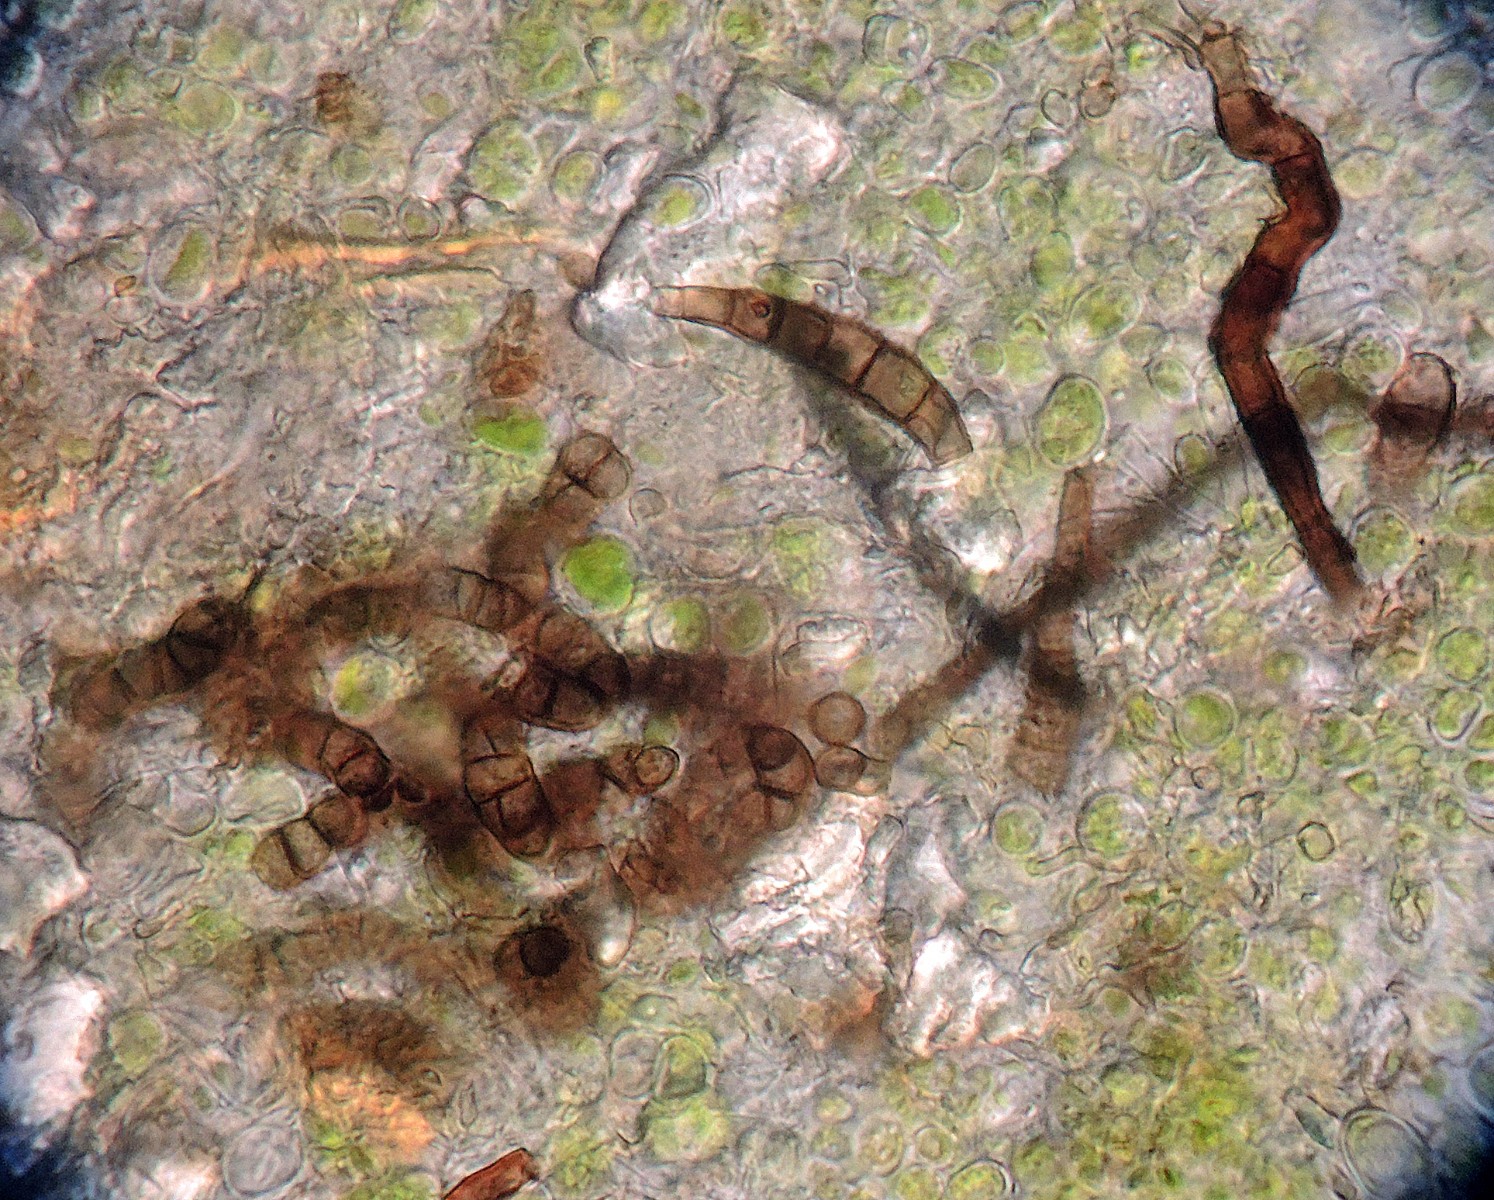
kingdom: Fungi
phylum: Ascomycota
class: Leotiomycetes
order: Helotiales
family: Mollisiaceae
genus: Trimmatostroma
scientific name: Trimmatostroma betulinum
